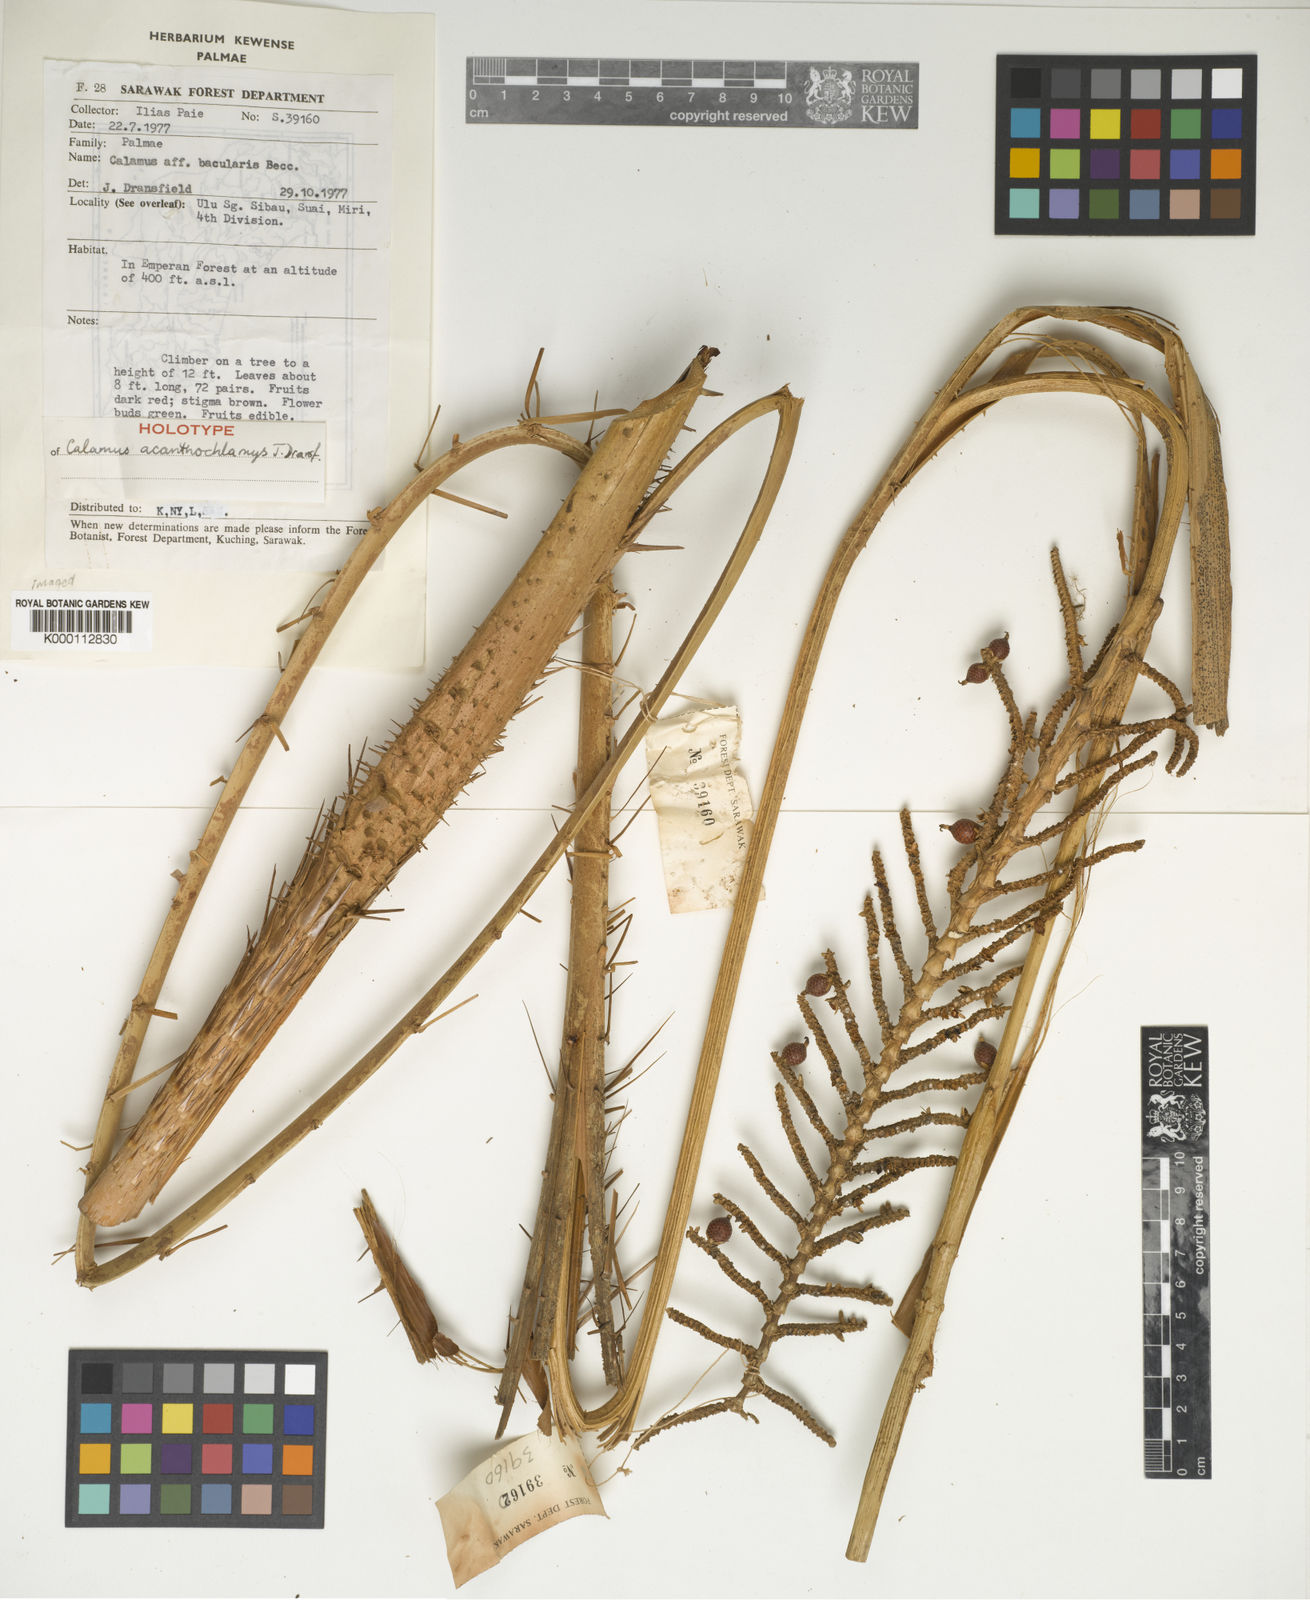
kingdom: Plantae
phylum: Tracheophyta
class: Liliopsida
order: Arecales
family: Arecaceae
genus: Calamus
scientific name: Calamus acanthochlamys
